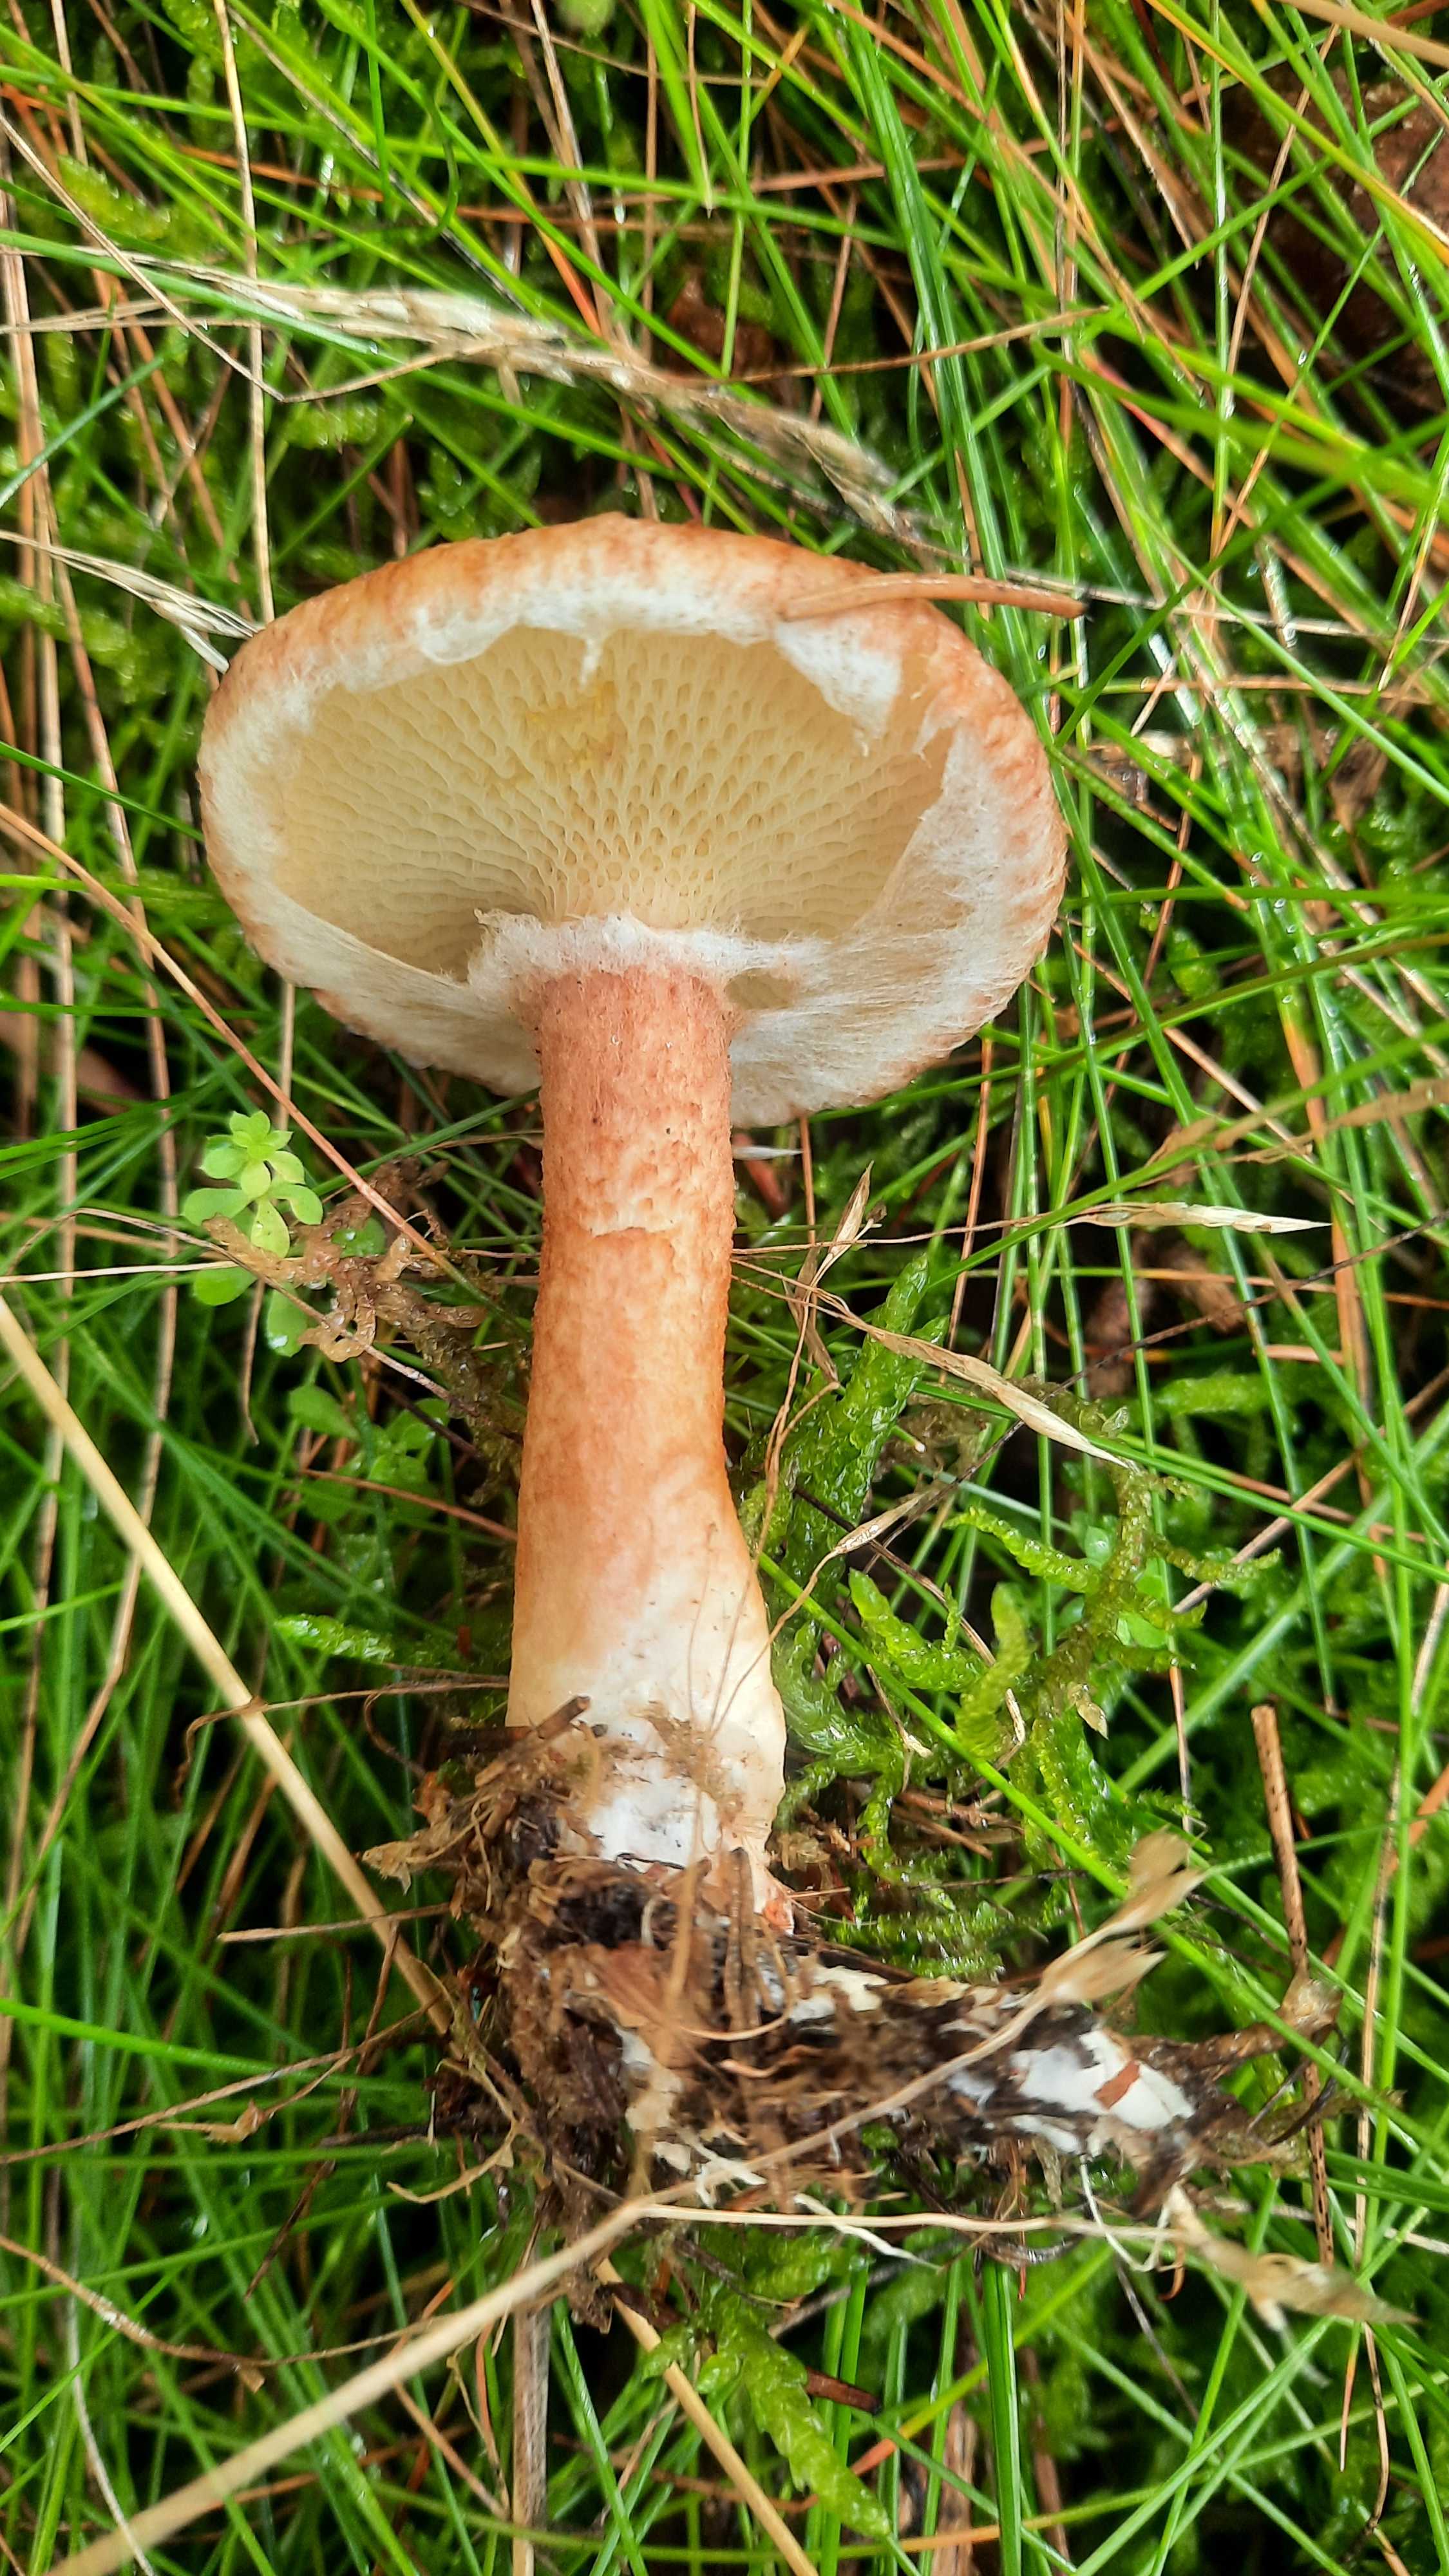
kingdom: Fungi
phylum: Basidiomycota
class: Agaricomycetes
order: Boletales
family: Suillaceae
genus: Suillus
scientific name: Suillus cavipes
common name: hulstokket slimrørhat
